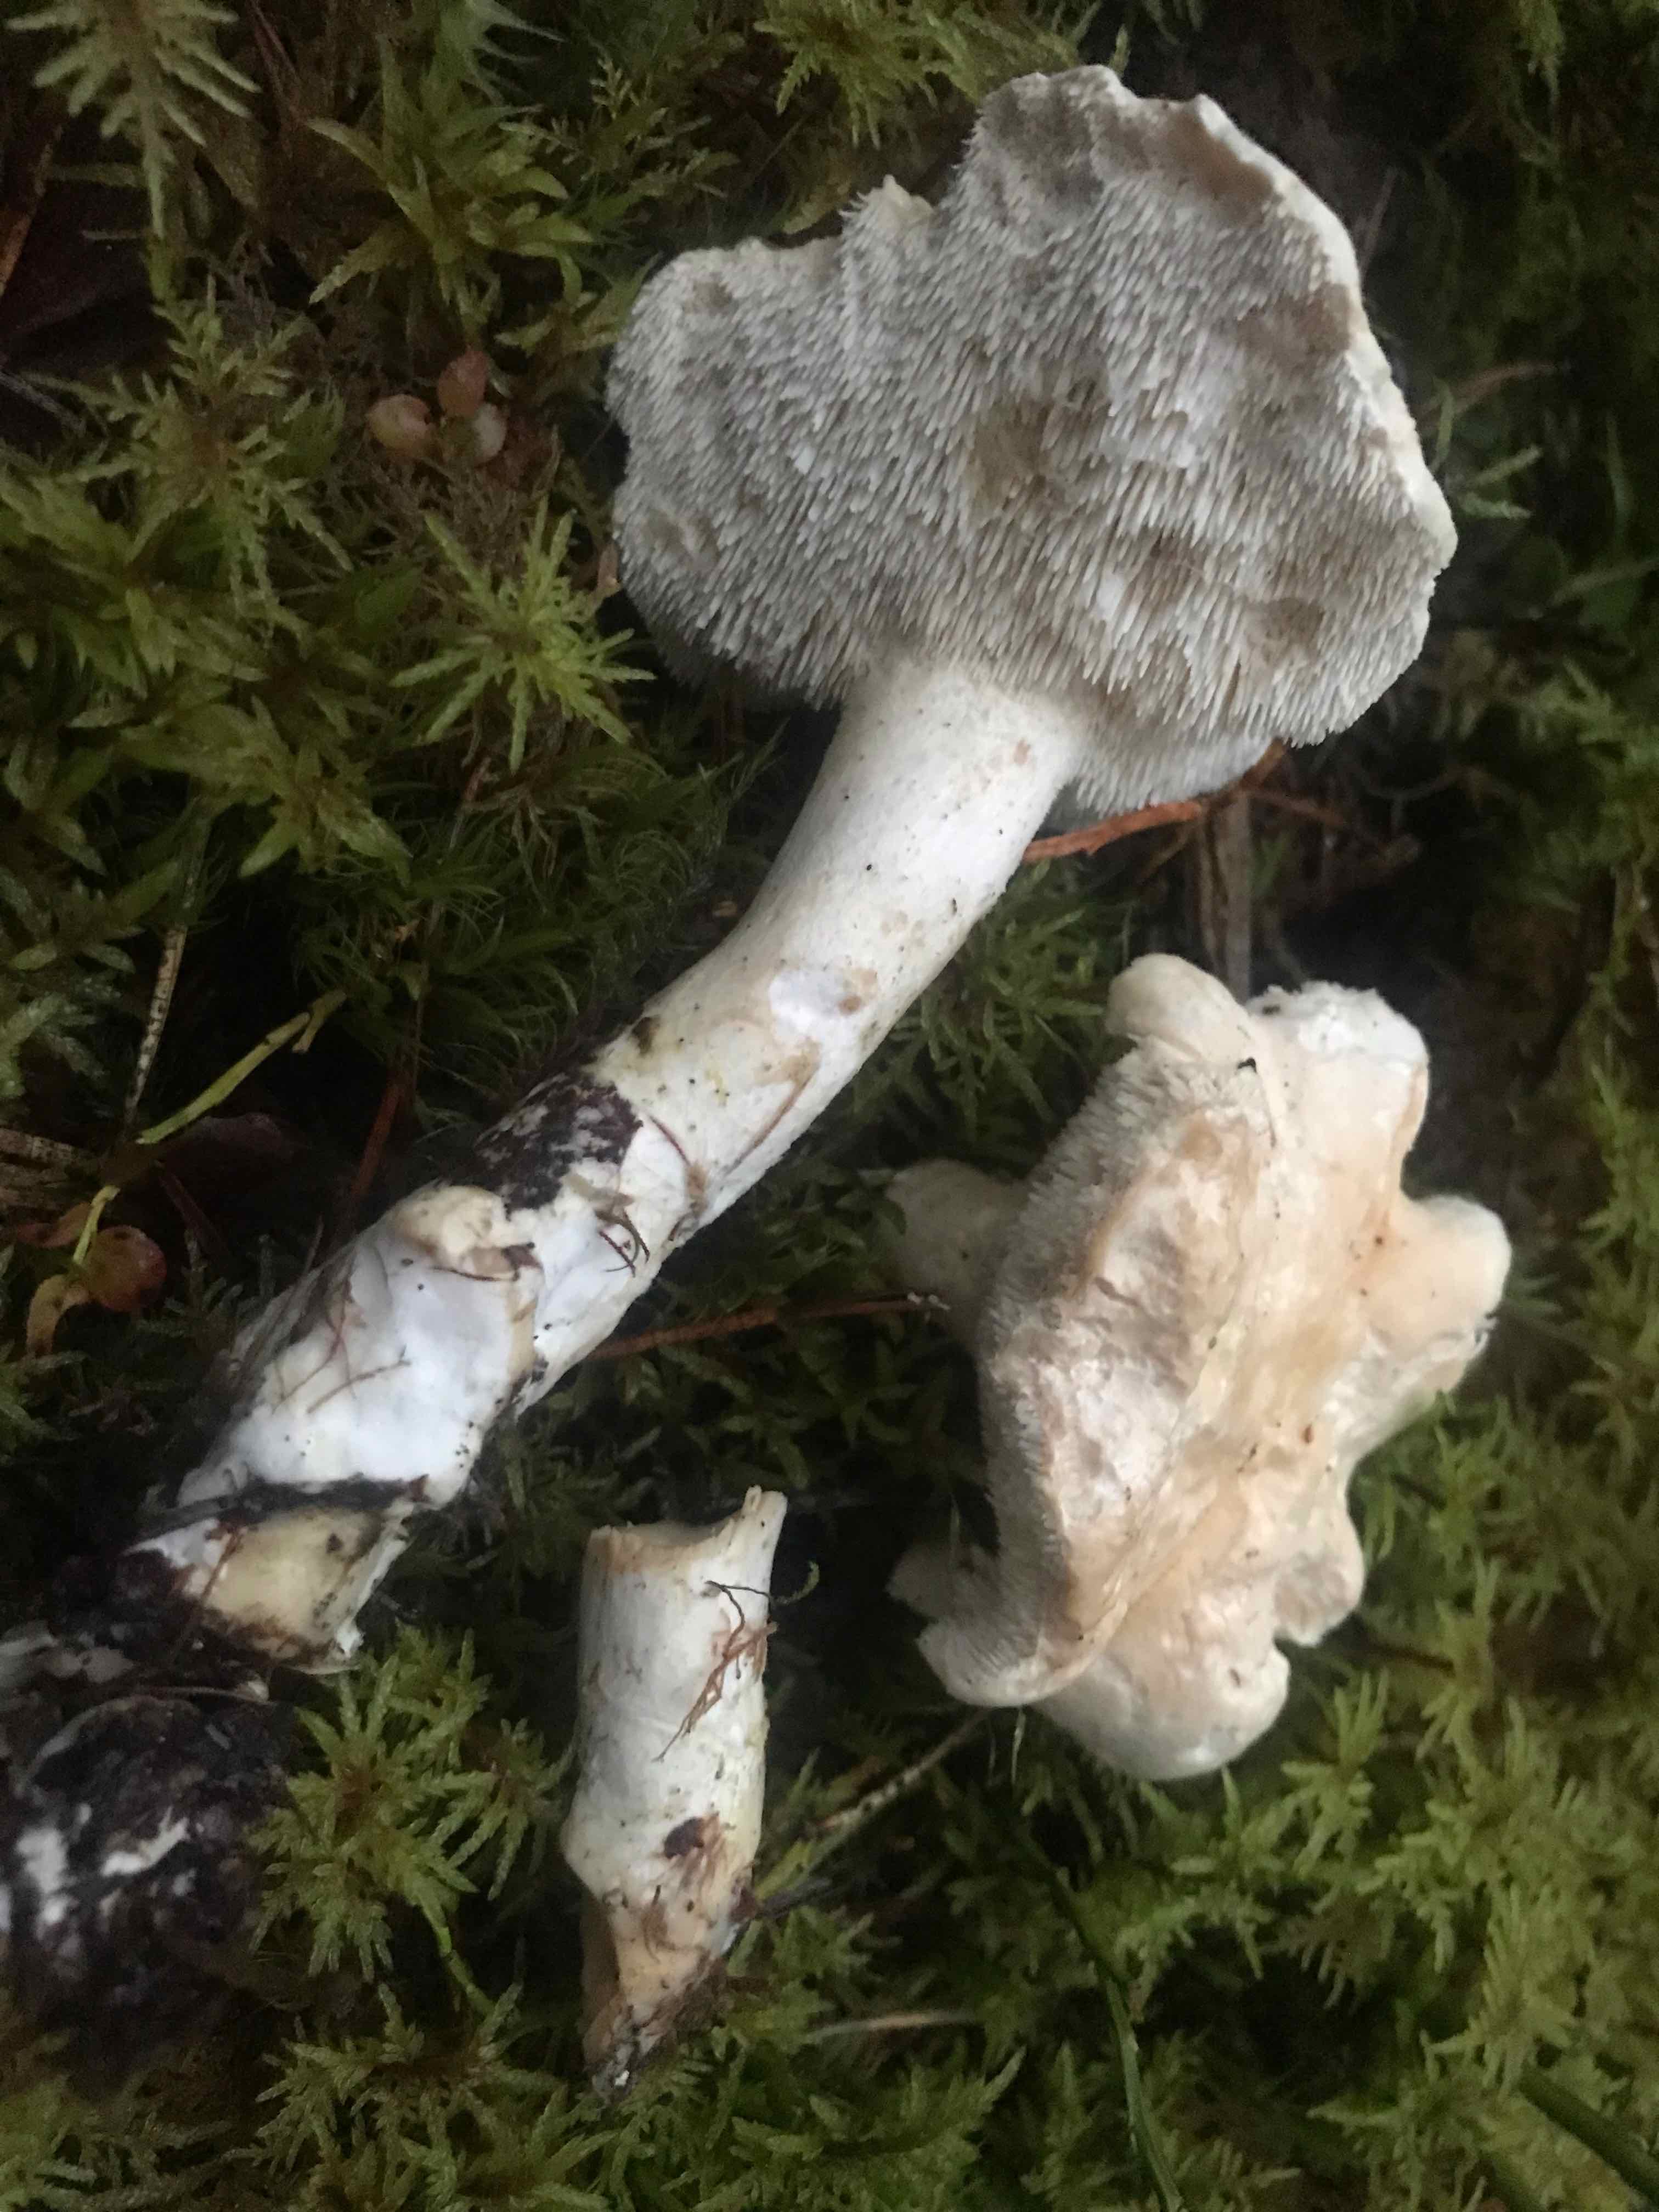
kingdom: Fungi
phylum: Basidiomycota
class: Agaricomycetes
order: Cantharellales
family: Hydnaceae
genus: Hydnum
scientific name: Hydnum repandum
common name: almindelig pigsvamp
